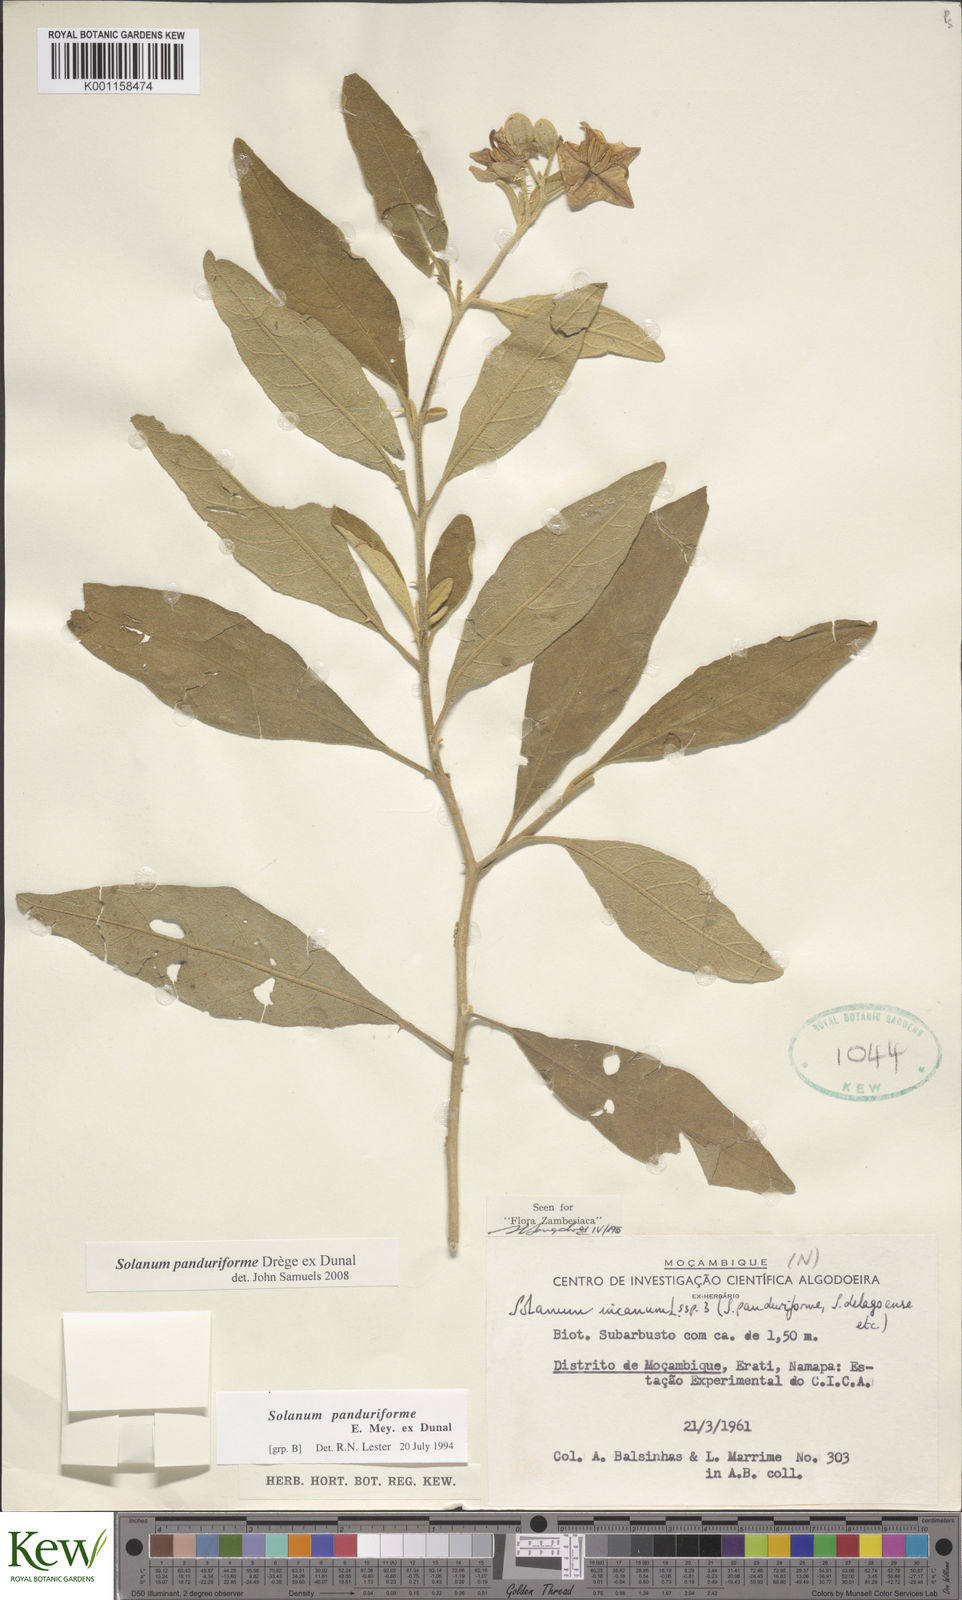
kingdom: Plantae
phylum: Tracheophyta
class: Magnoliopsida
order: Solanales
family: Solanaceae
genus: Solanum
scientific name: Solanum campylacanthum
